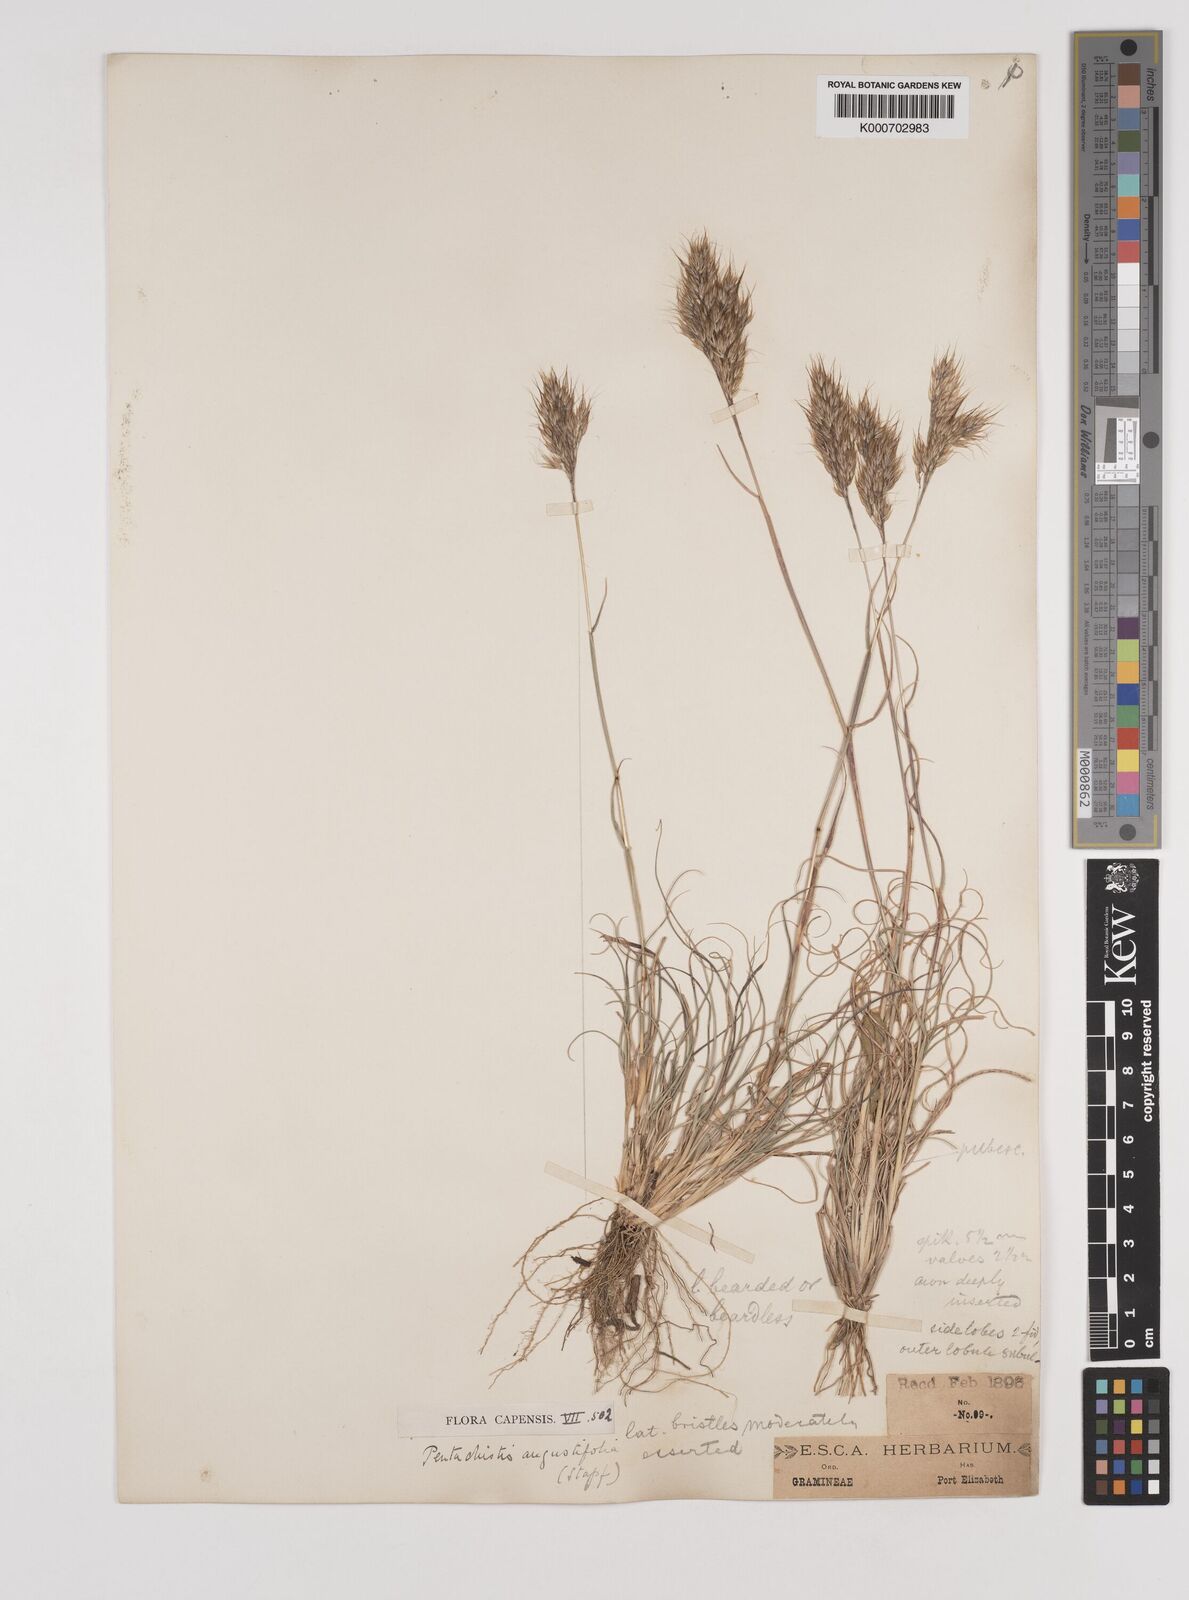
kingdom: Plantae
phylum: Tracheophyta
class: Liliopsida
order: Poales
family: Poaceae
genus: Pentameris
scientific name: Pentameris pallida
